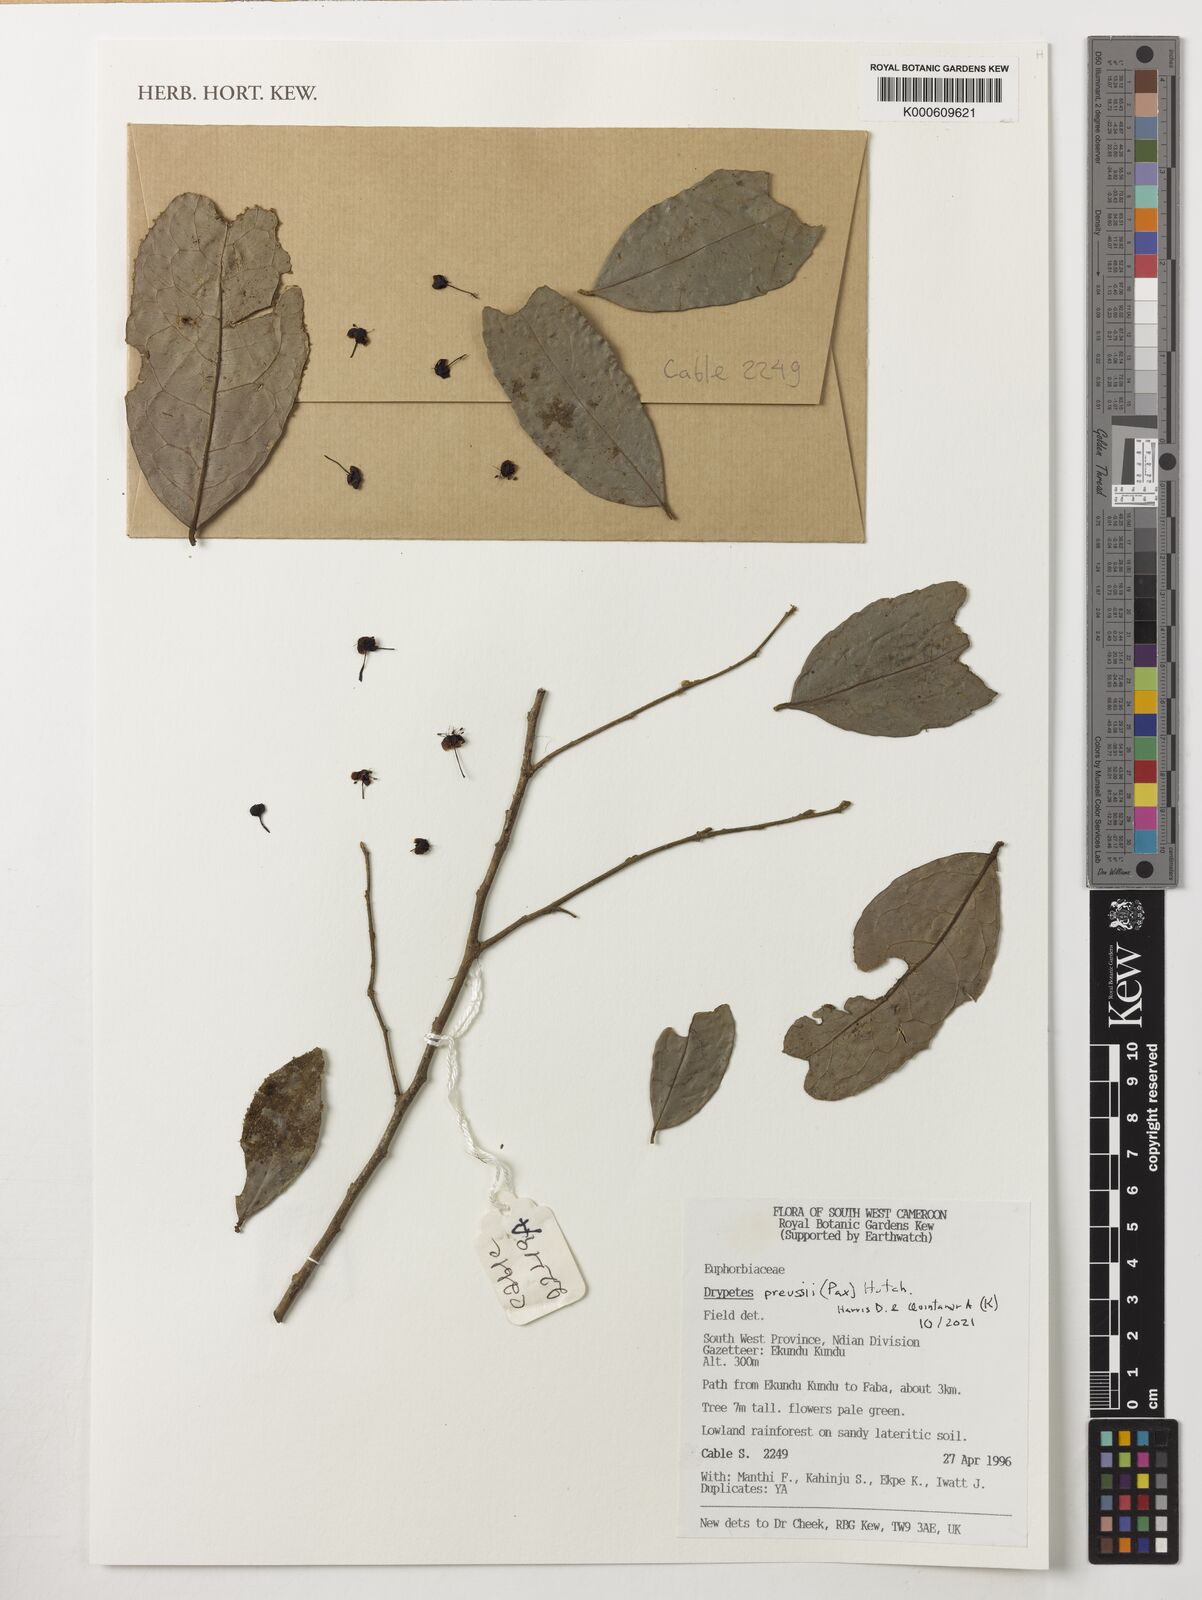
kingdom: Plantae
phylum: Tracheophyta
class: Magnoliopsida
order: Malpighiales
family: Putranjivaceae
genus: Drypetes
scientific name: Drypetes preussii
